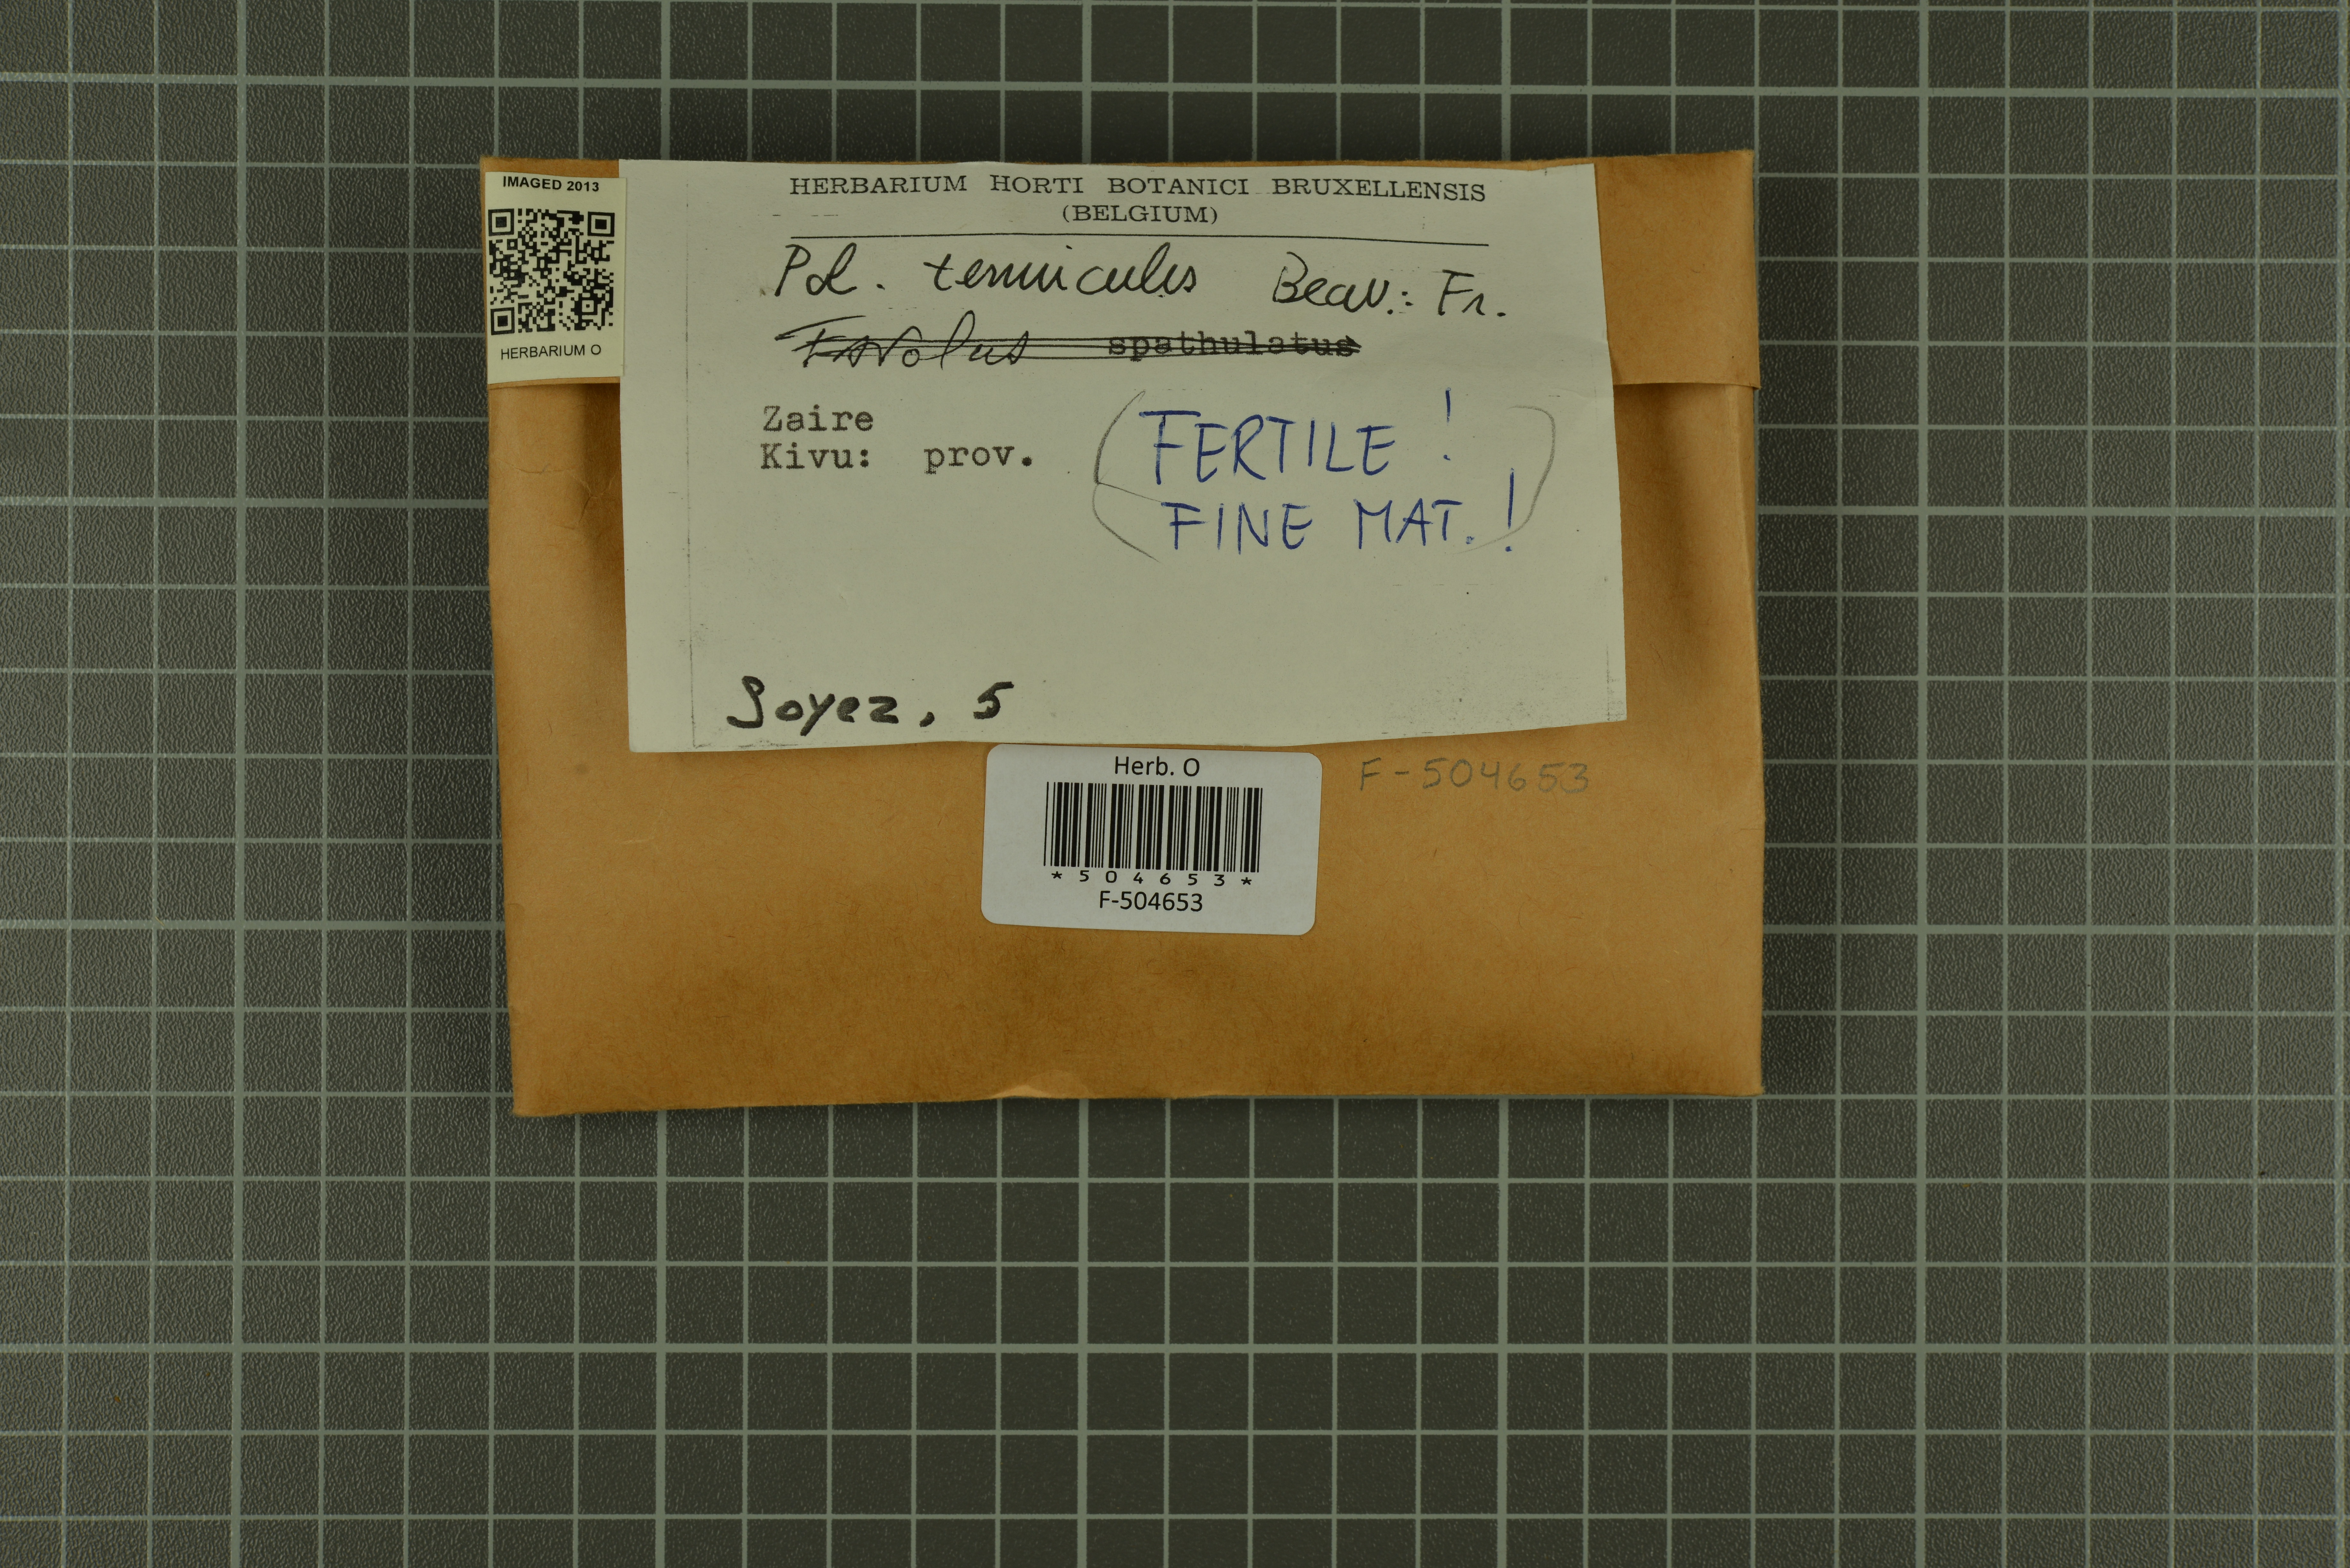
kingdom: Fungi
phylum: Basidiomycota
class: Agaricomycetes
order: Polyporales
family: Polyporaceae
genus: Favolus
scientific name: Favolus tenuiculus
